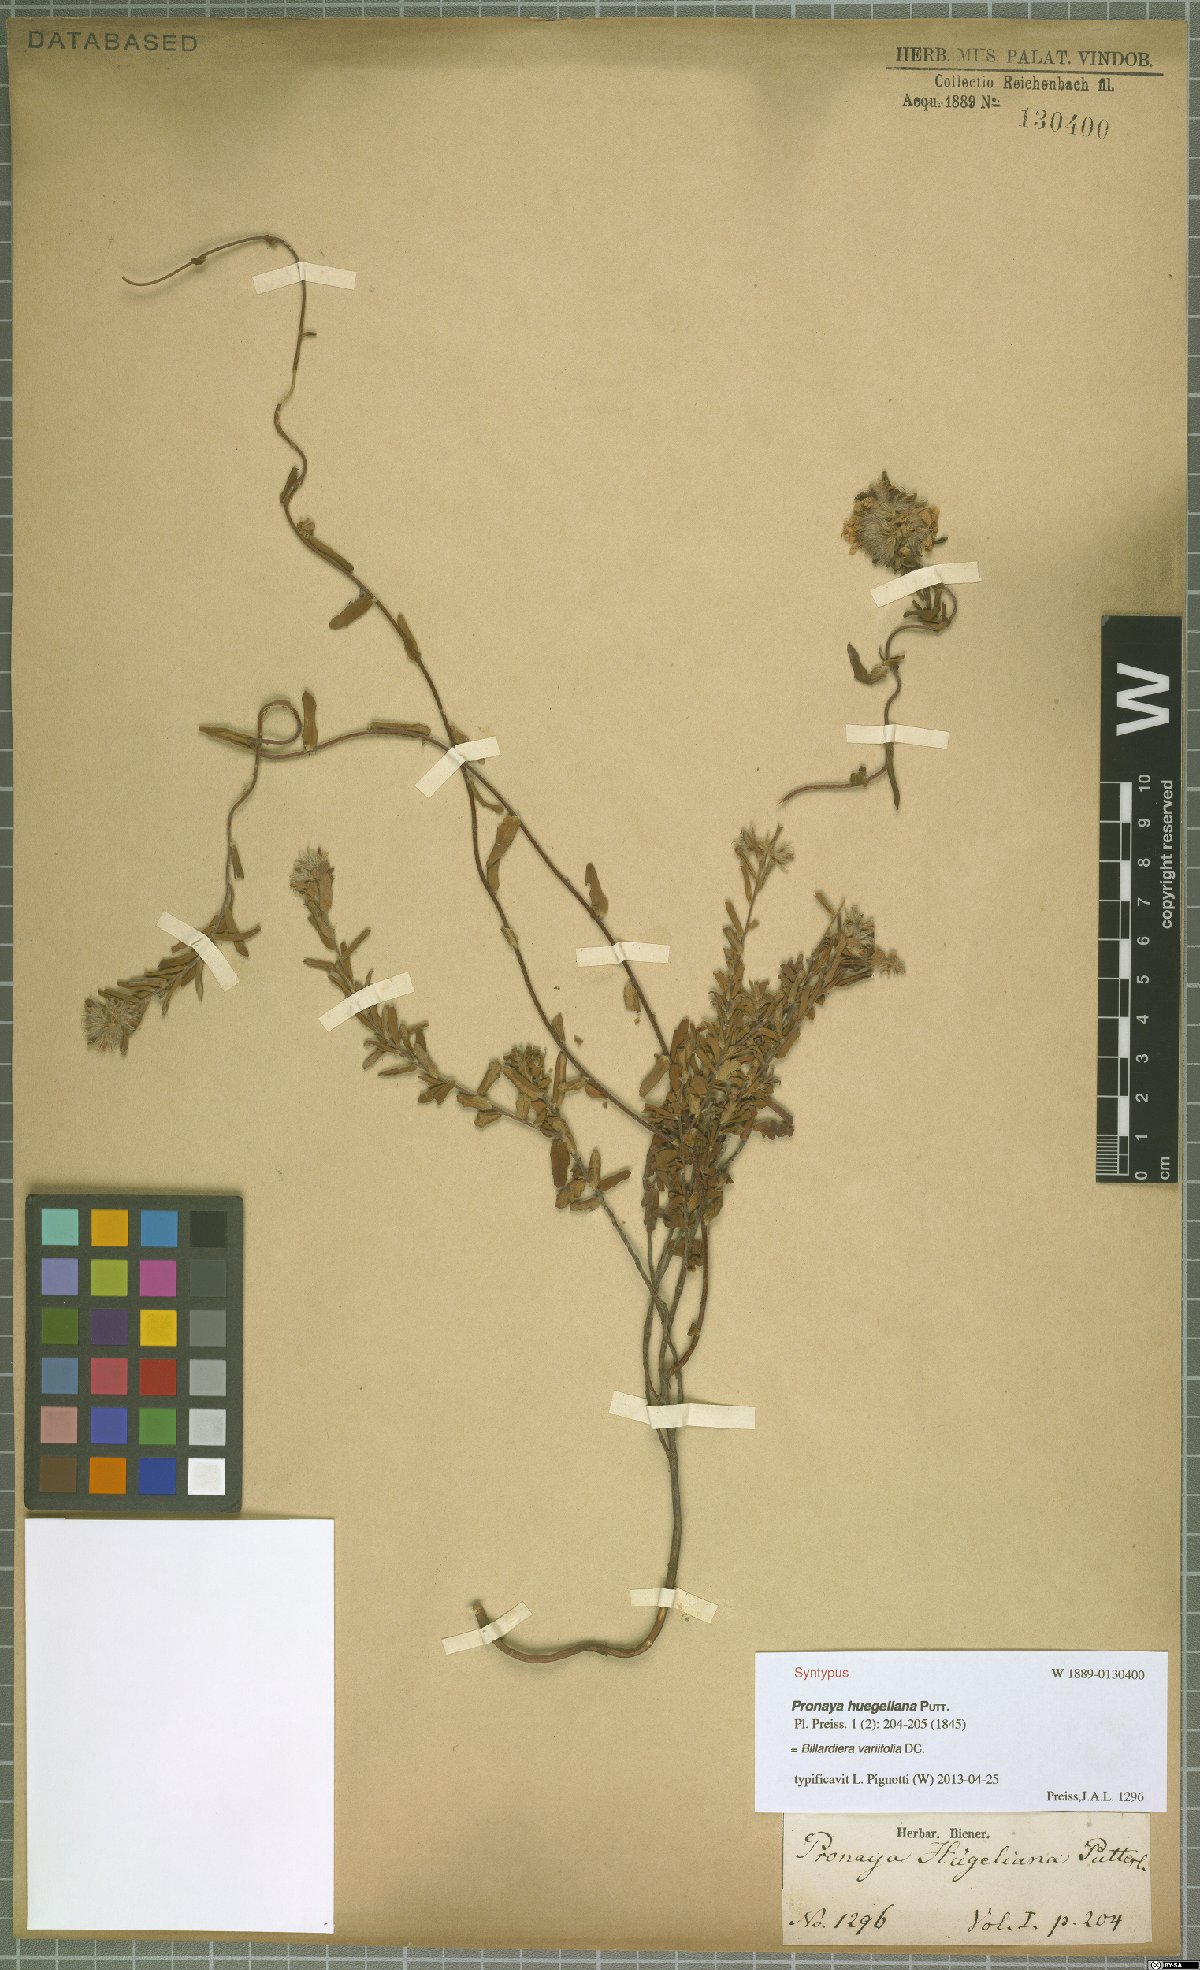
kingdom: Plantae
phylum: Tracheophyta
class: Magnoliopsida
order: Apiales
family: Pittosporaceae
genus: Billardiera
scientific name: Billardiera variifolia
